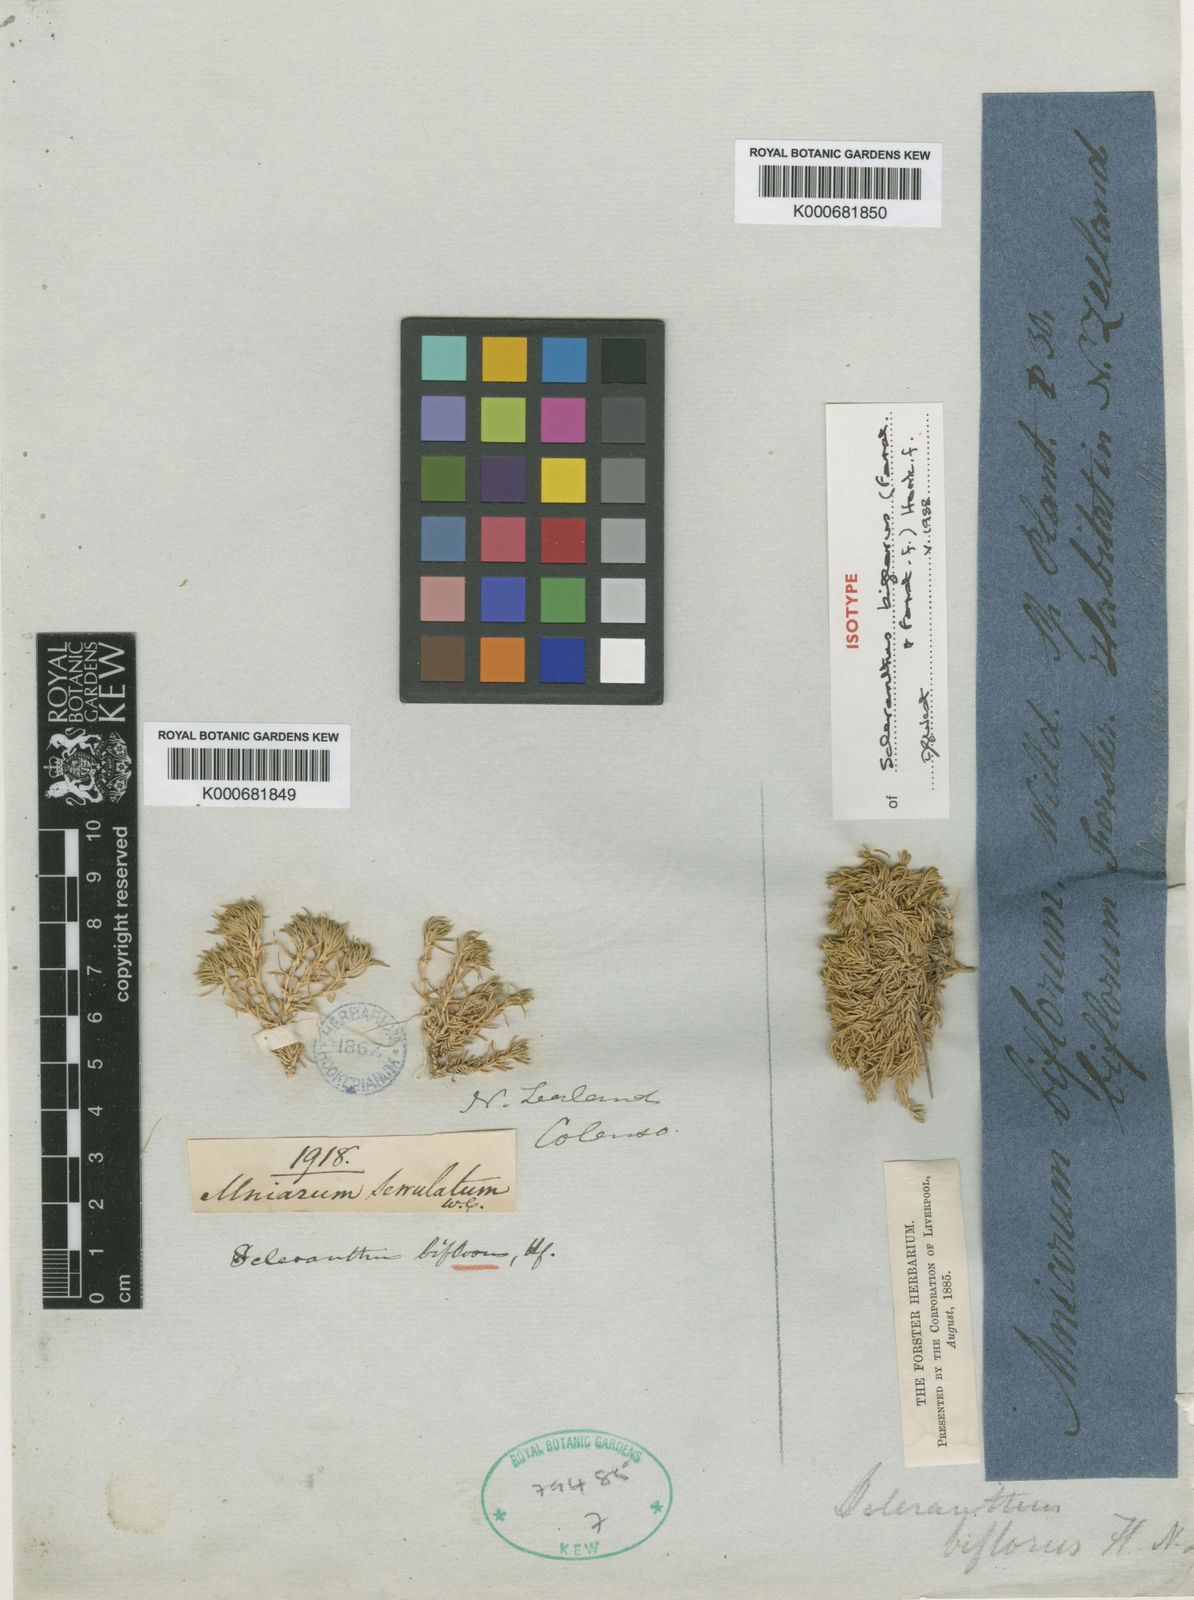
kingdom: Plantae
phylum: Tracheophyta
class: Magnoliopsida
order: Caryophyllales
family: Caryophyllaceae
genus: Scleranthus
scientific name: Scleranthus biflorus
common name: Two-flower knawel
